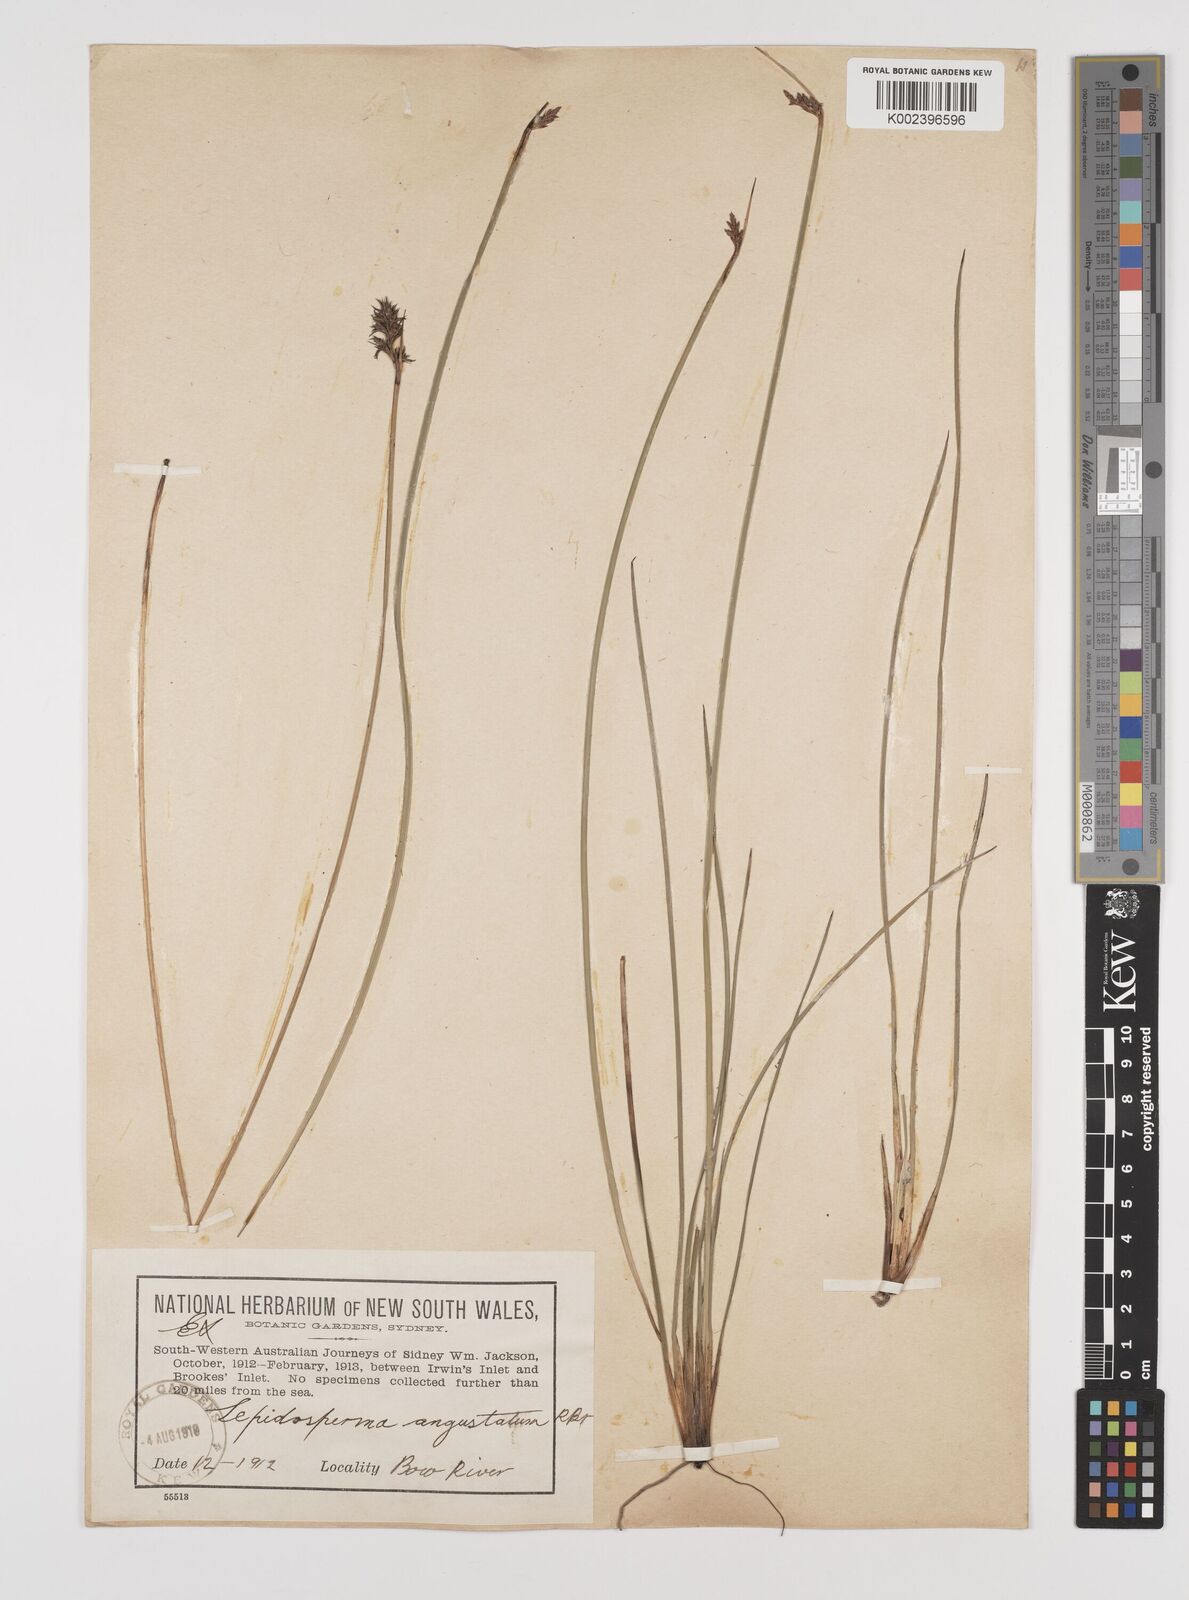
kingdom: Plantae
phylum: Tracheophyta
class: Liliopsida
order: Poales
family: Cyperaceae
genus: Lepidosperma
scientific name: Lepidosperma angustatum
